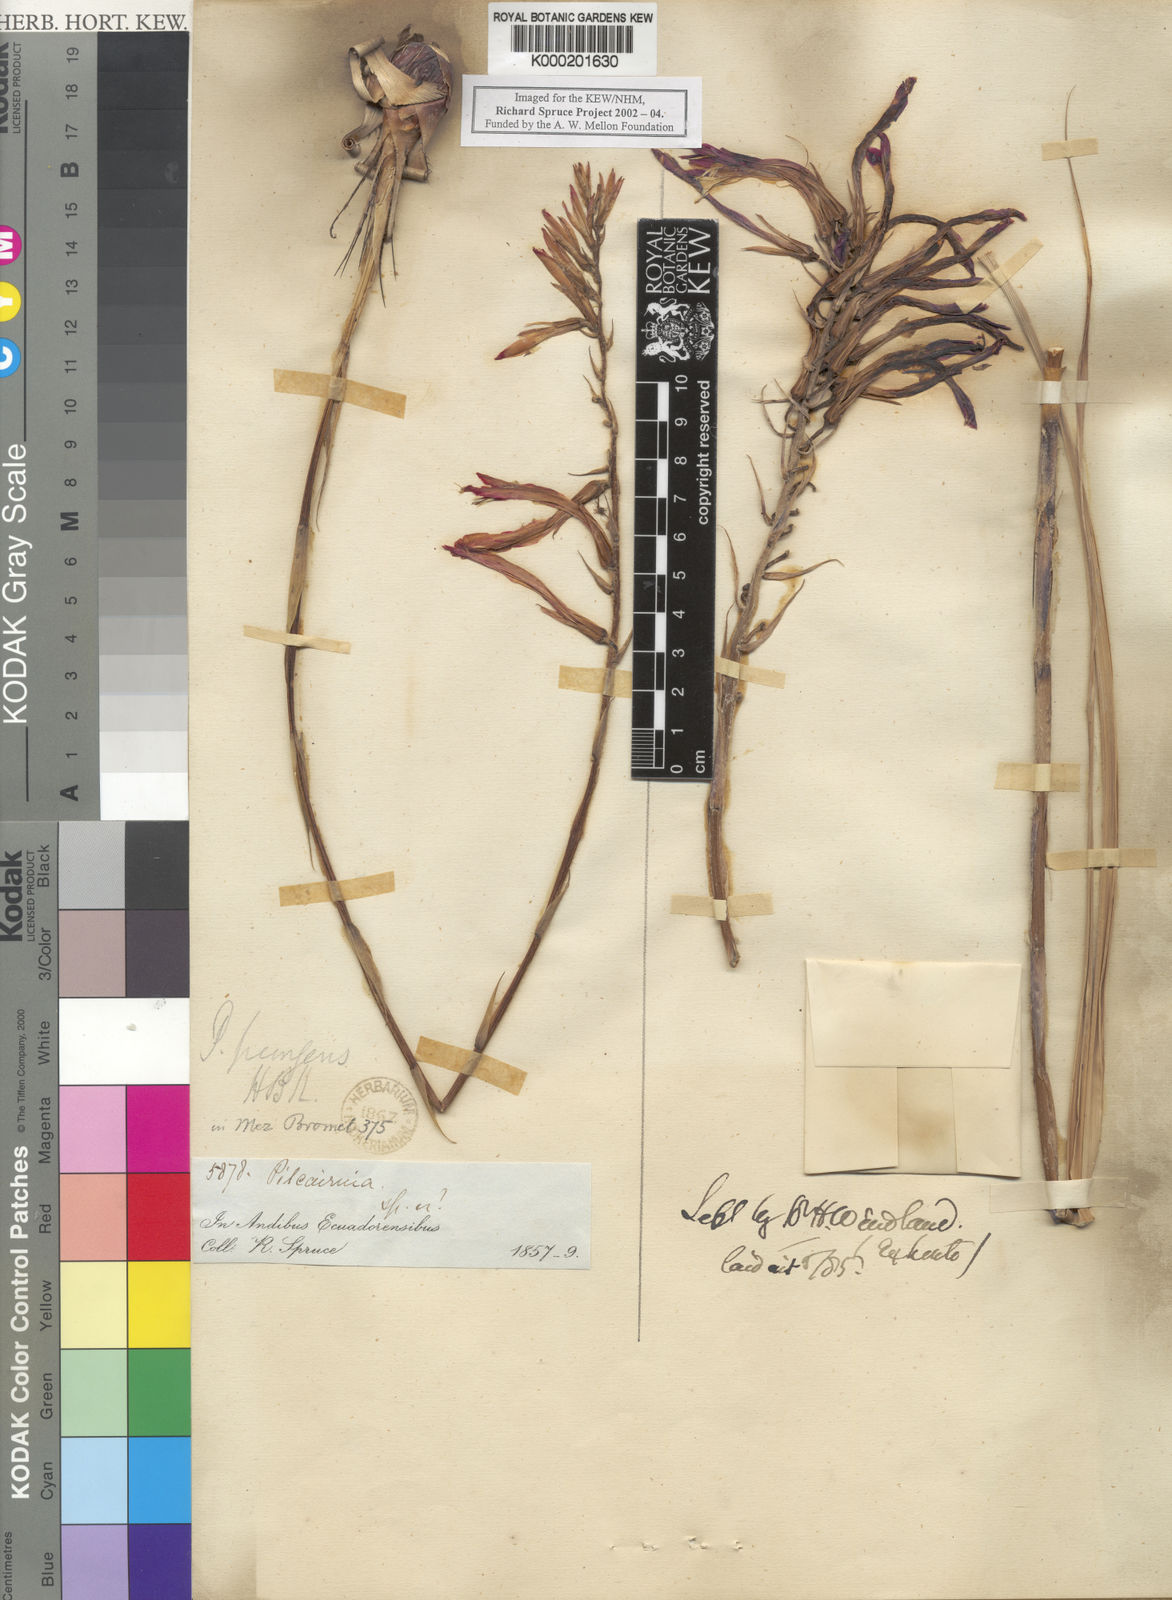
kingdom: Plantae
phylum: Tracheophyta
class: Liliopsida
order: Poales
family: Bromeliaceae
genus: Pitcairnia
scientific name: Pitcairnia pungens
